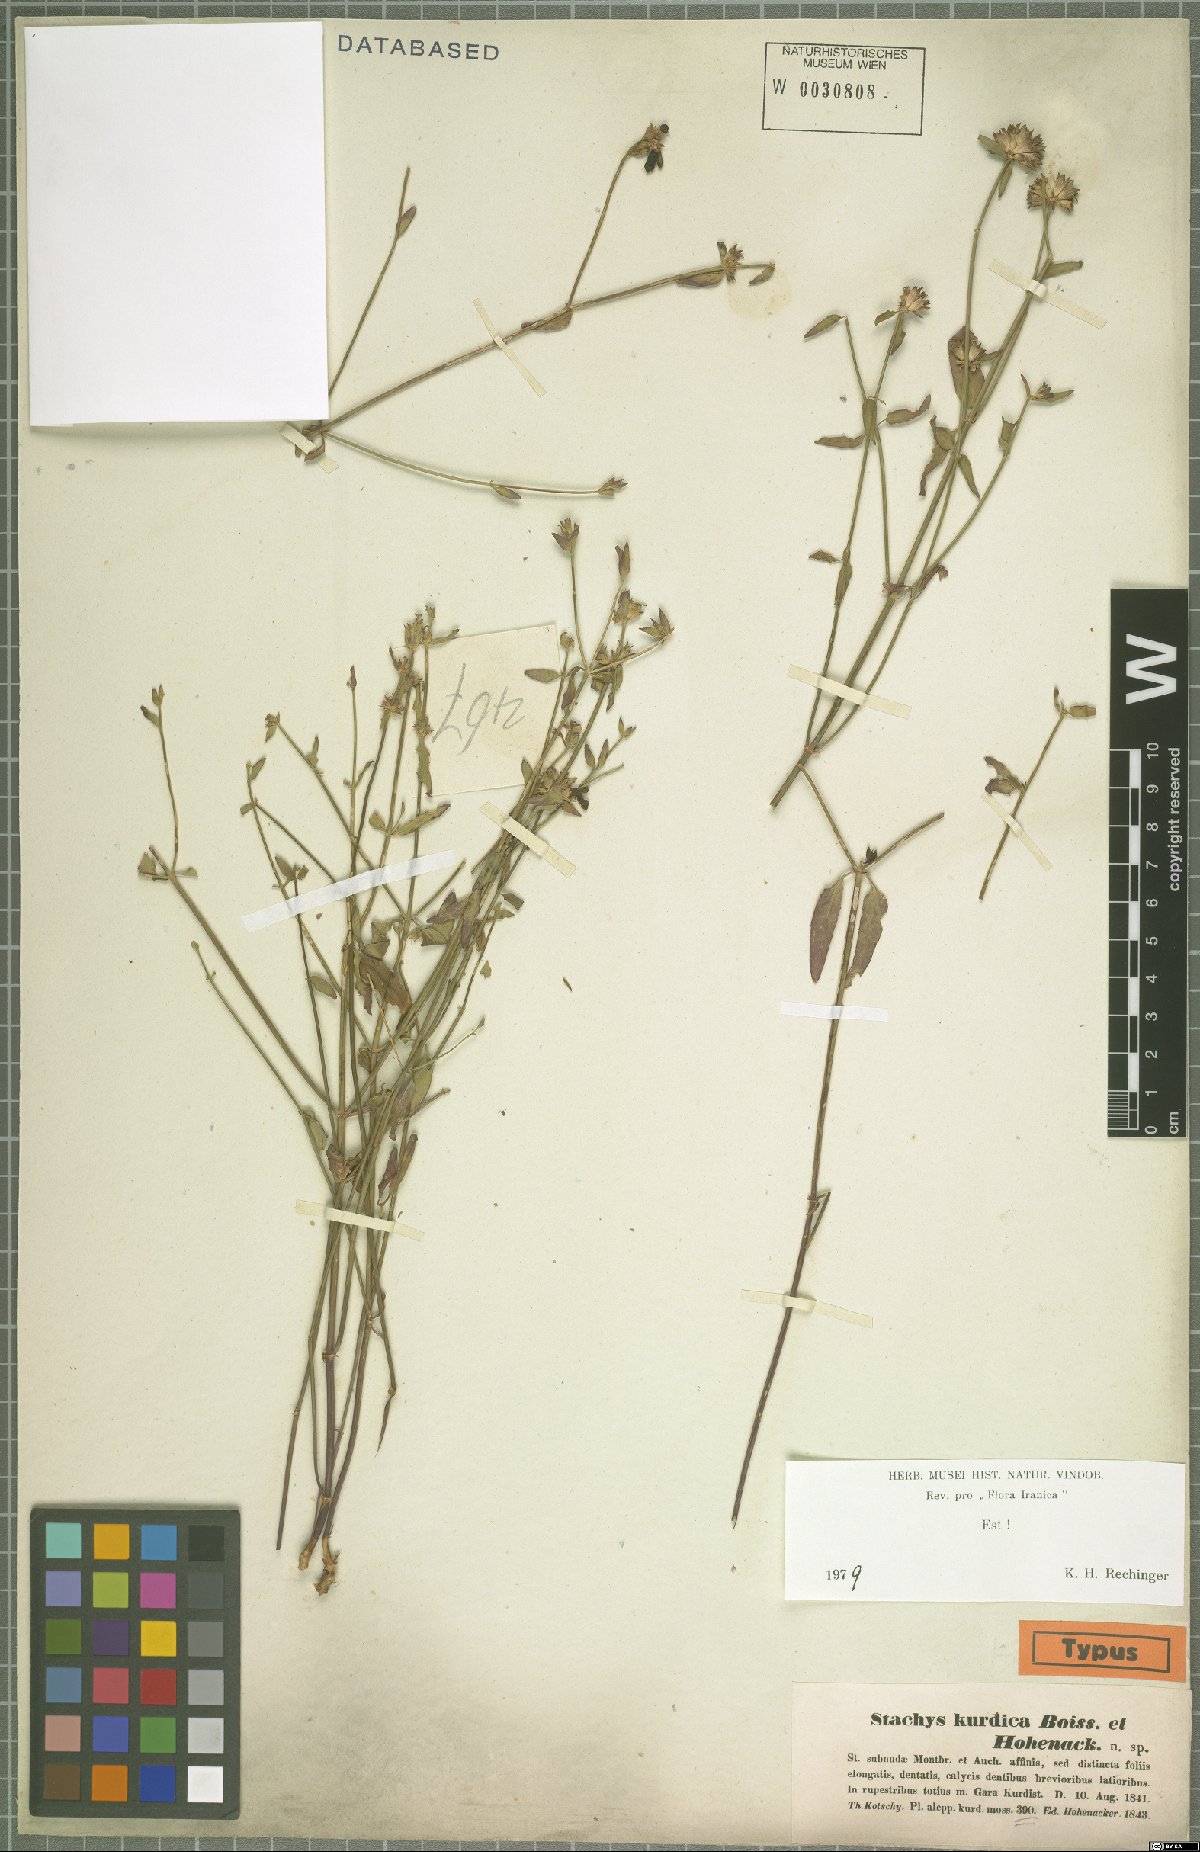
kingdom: Plantae
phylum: Tracheophyta
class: Magnoliopsida
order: Lamiales
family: Lamiaceae
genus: Stachys
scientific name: Stachys kurdica
